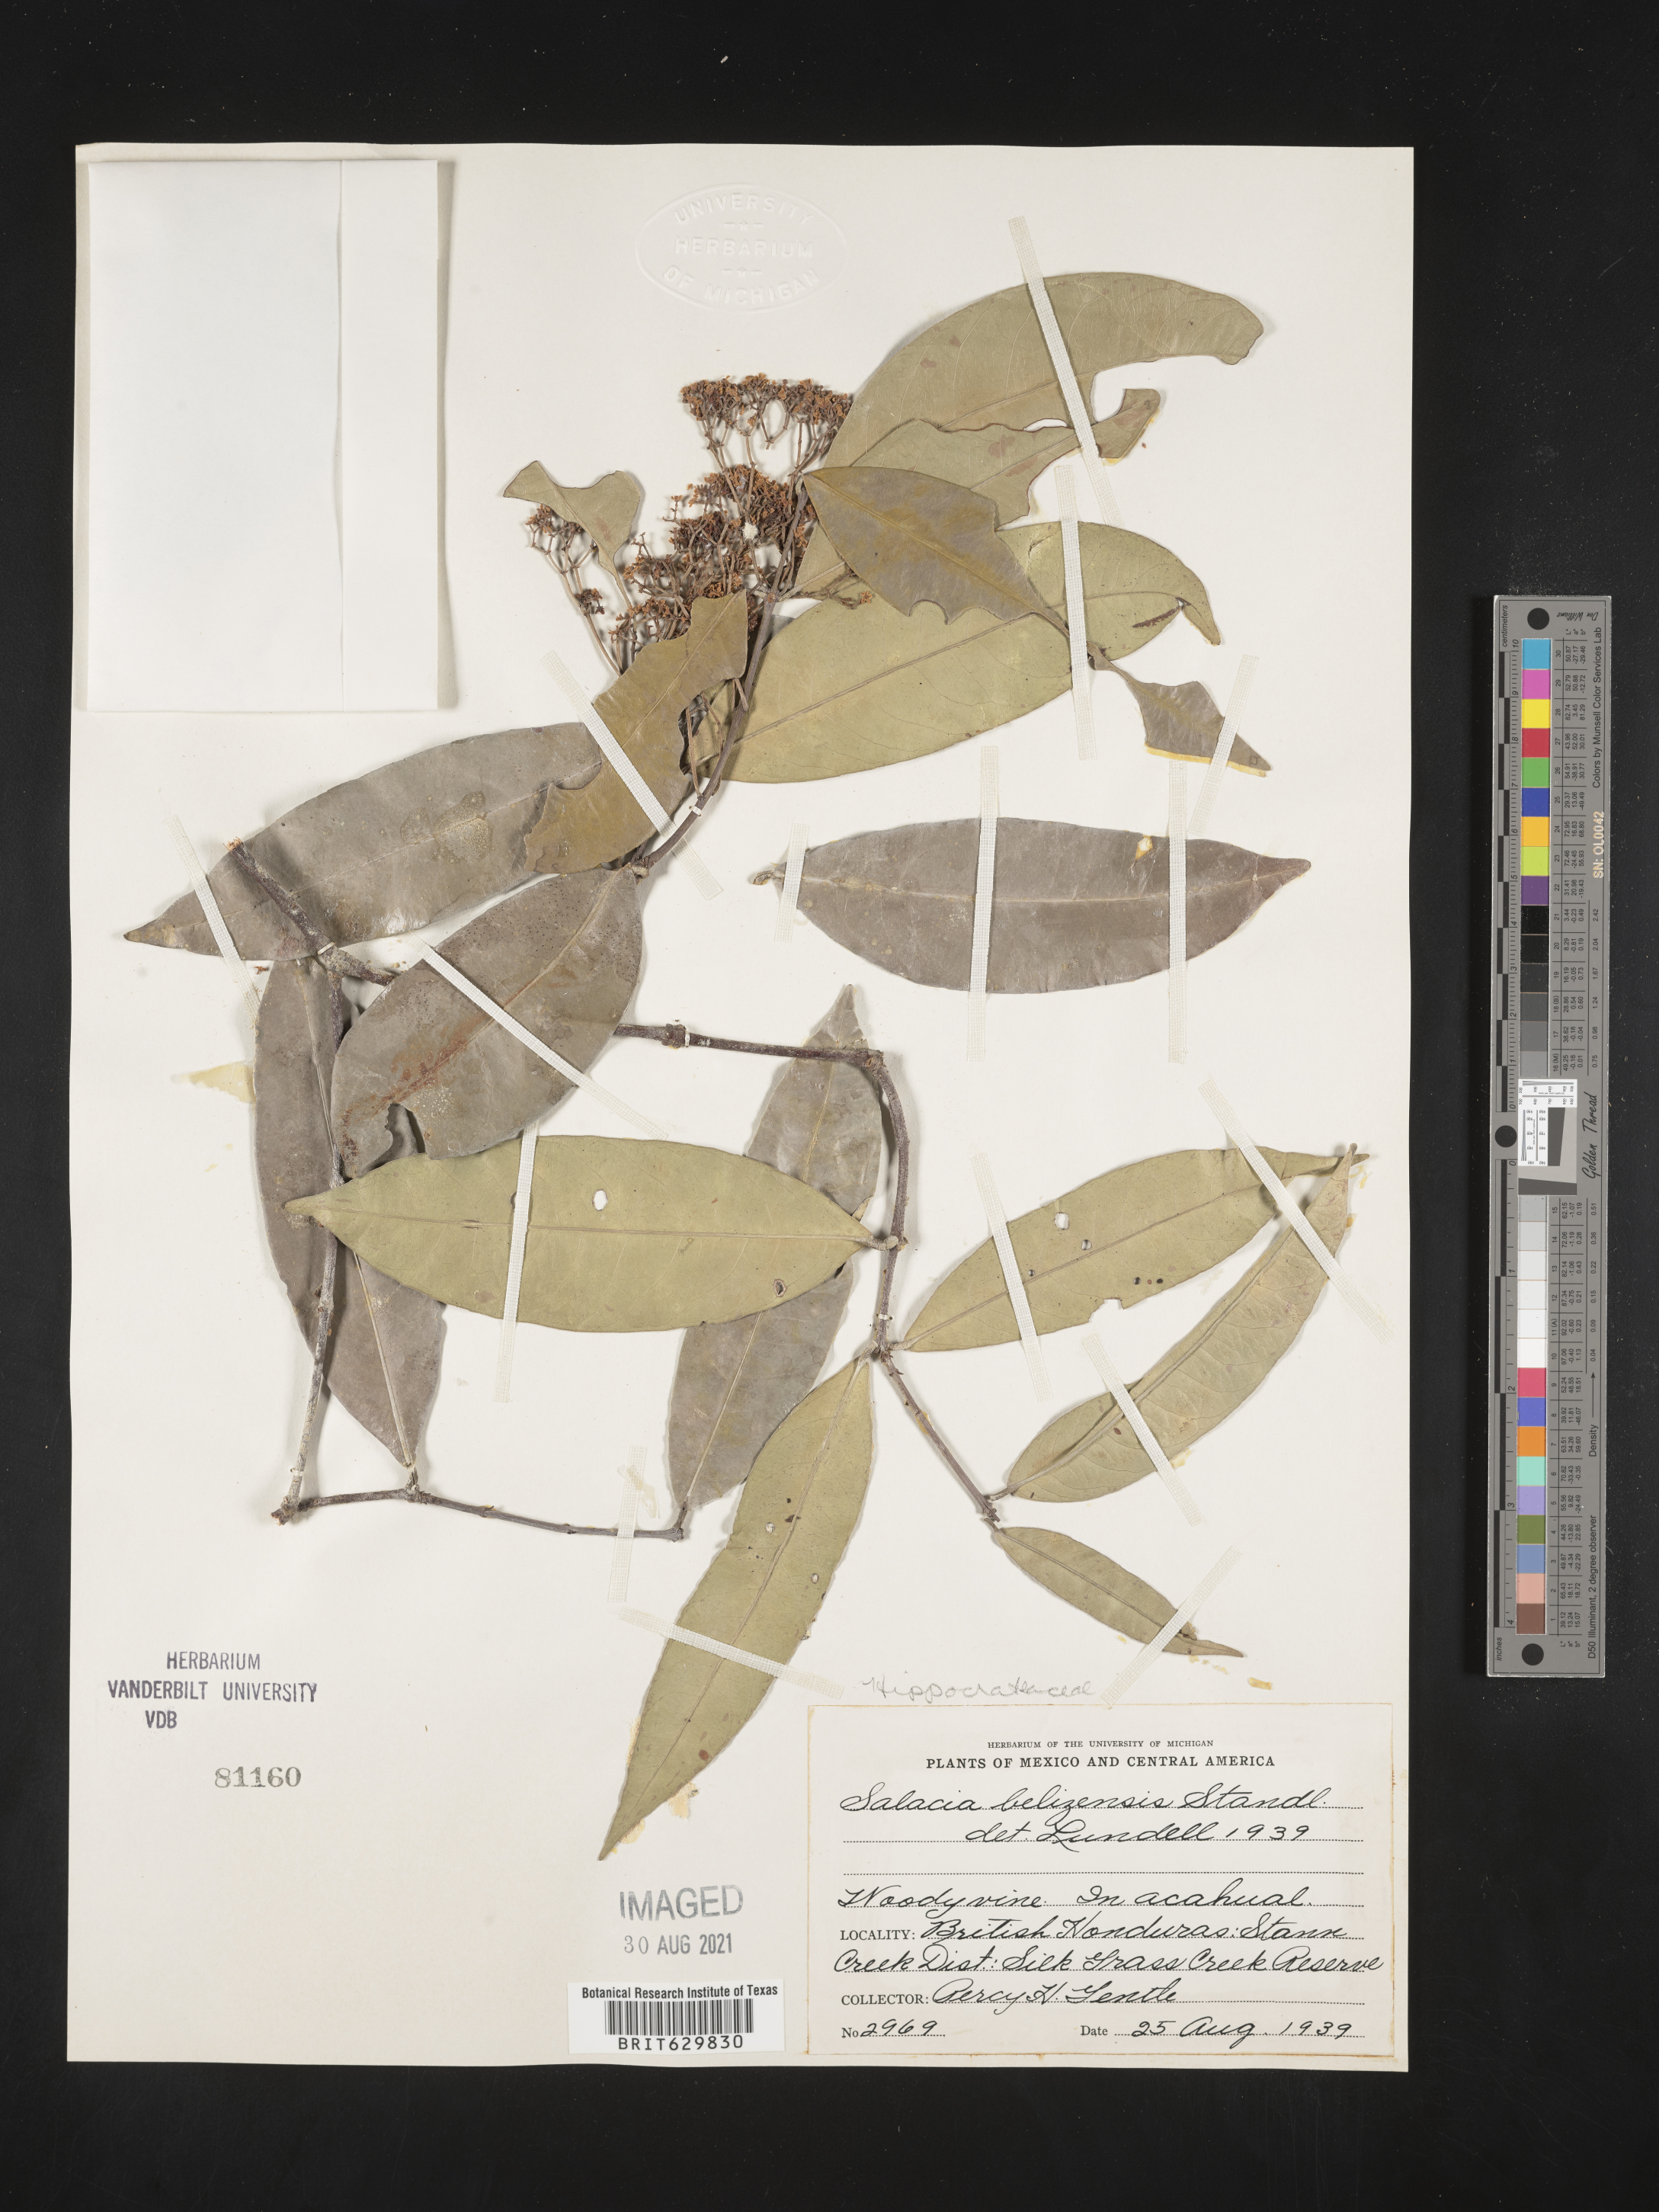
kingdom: Plantae
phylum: Tracheophyta
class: Magnoliopsida
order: Celastrales
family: Celastraceae
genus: Cheiloclinium
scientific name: Cheiloclinium belizense
